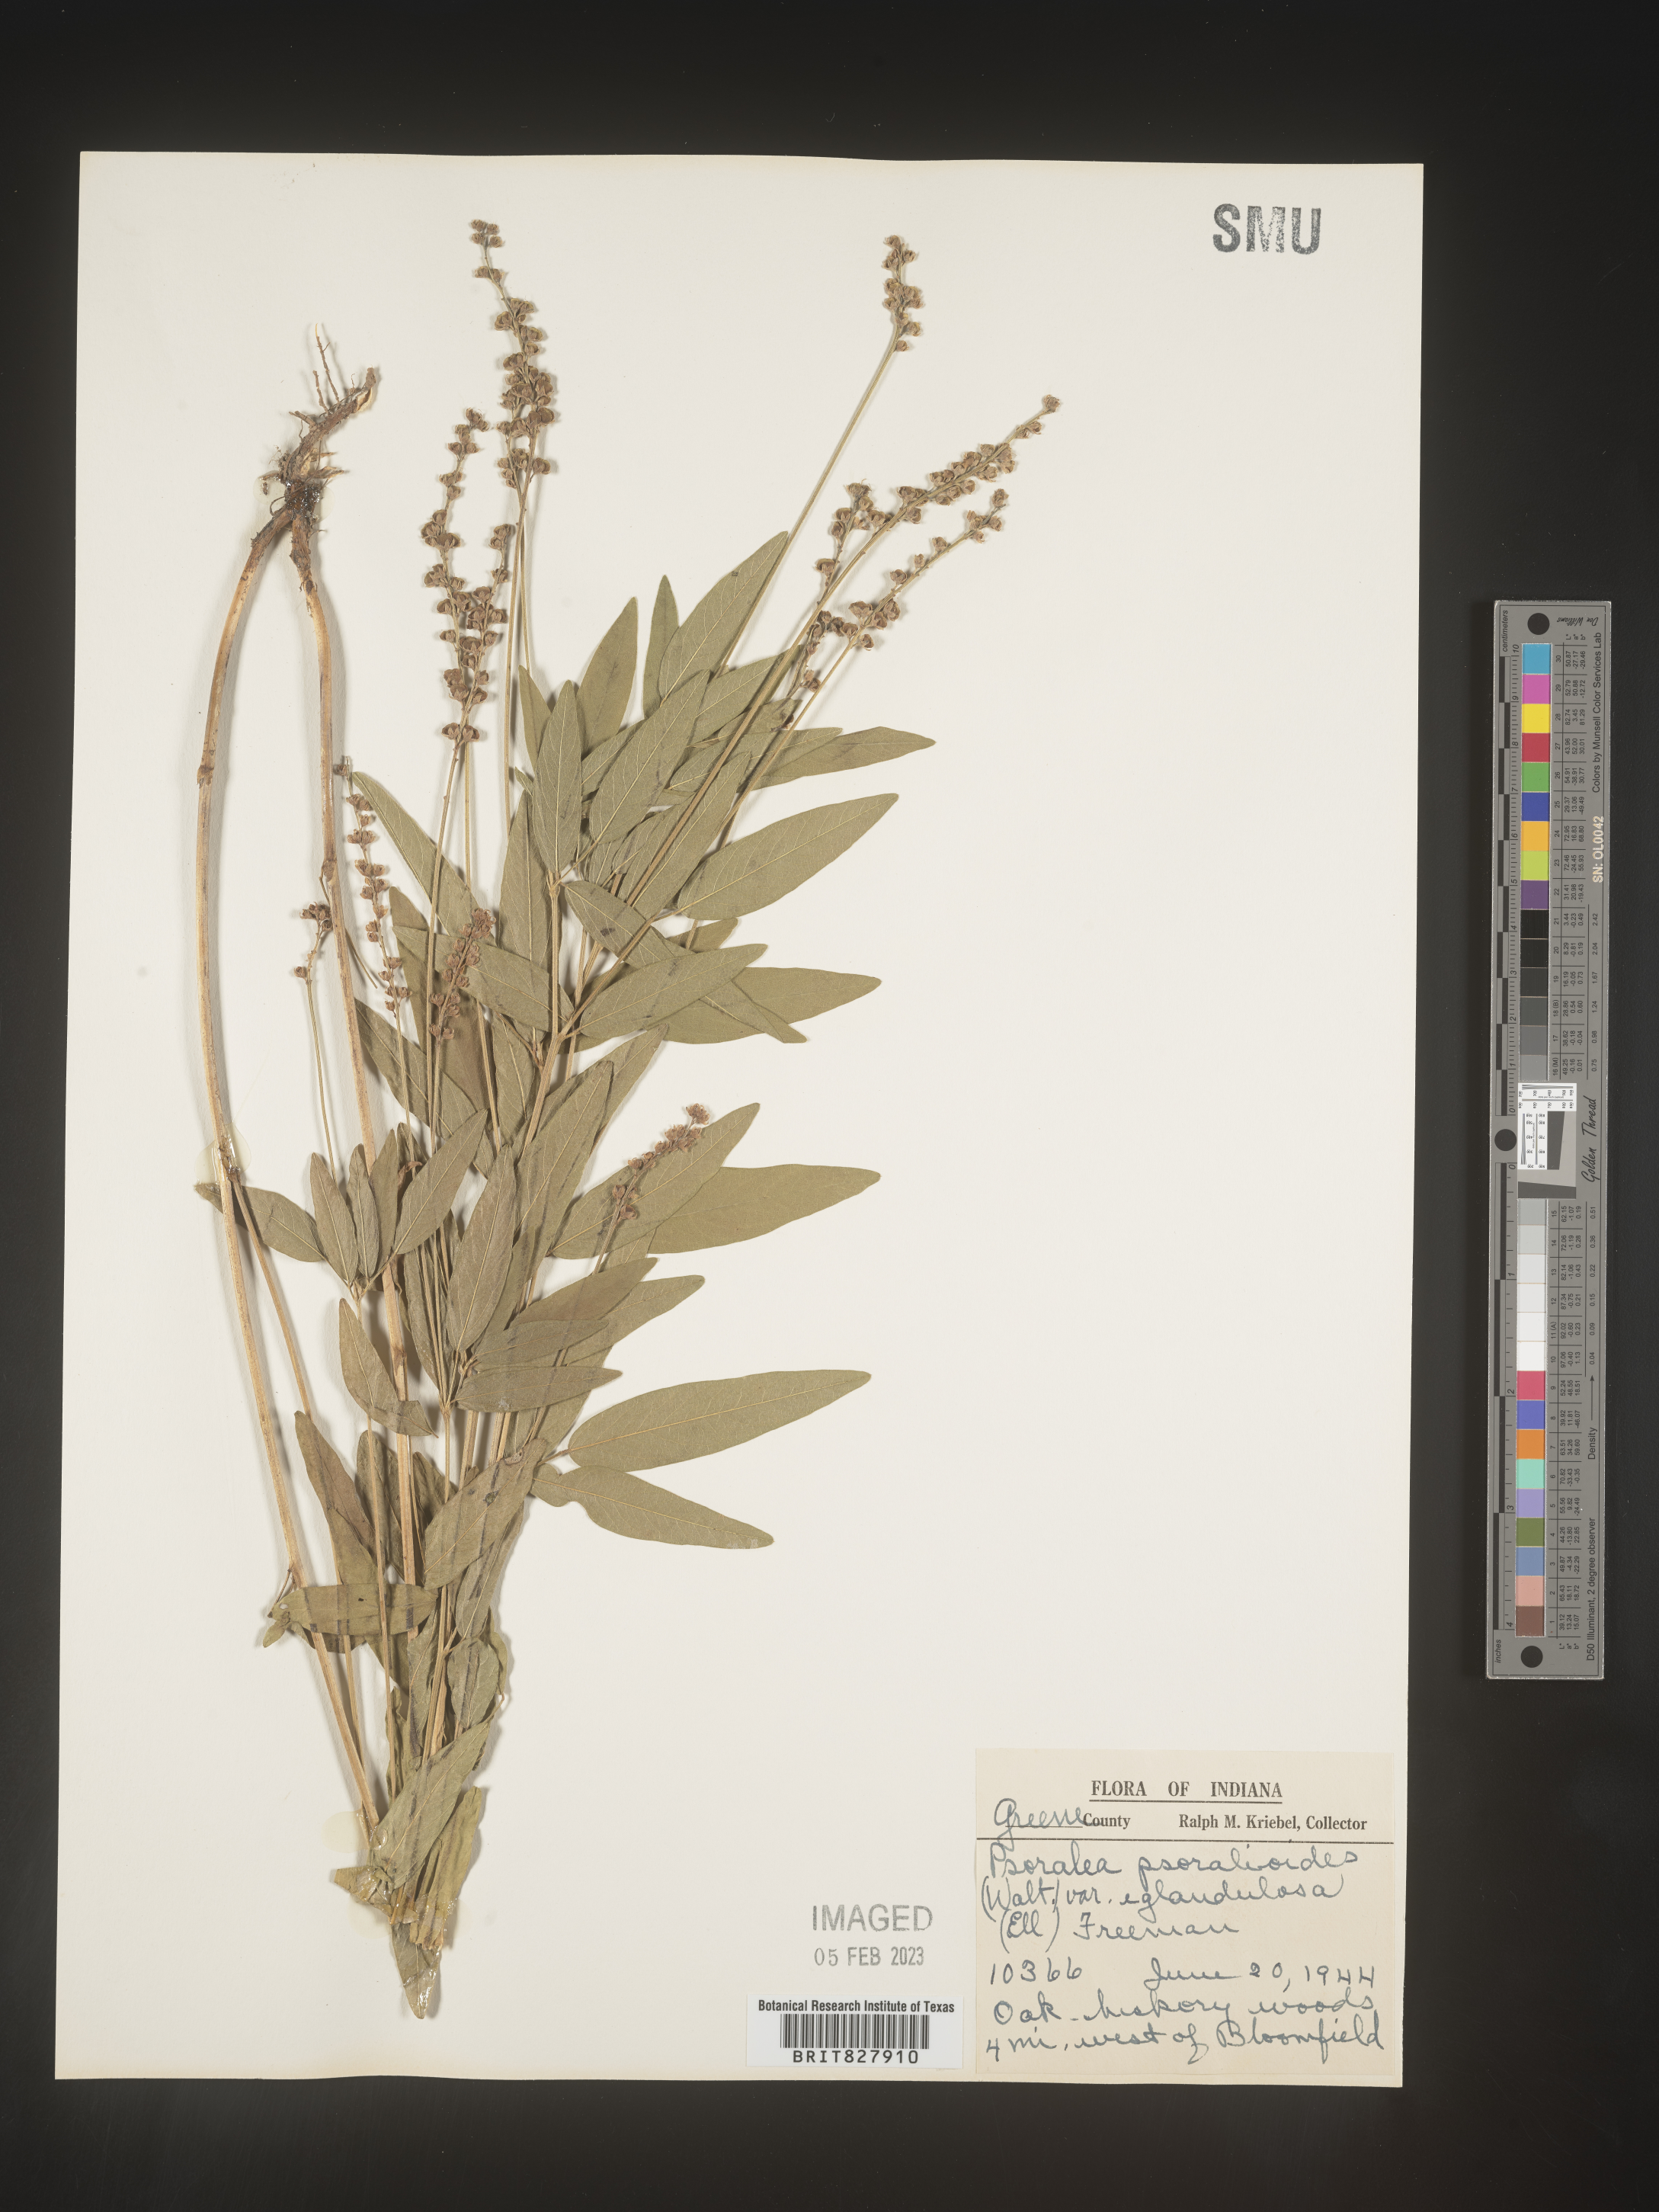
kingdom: Plantae
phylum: Tracheophyta
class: Magnoliopsida
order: Fabales
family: Fabaceae
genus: Orbexilum
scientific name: Orbexilum pedunculatum
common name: Sampson's snakeroot
